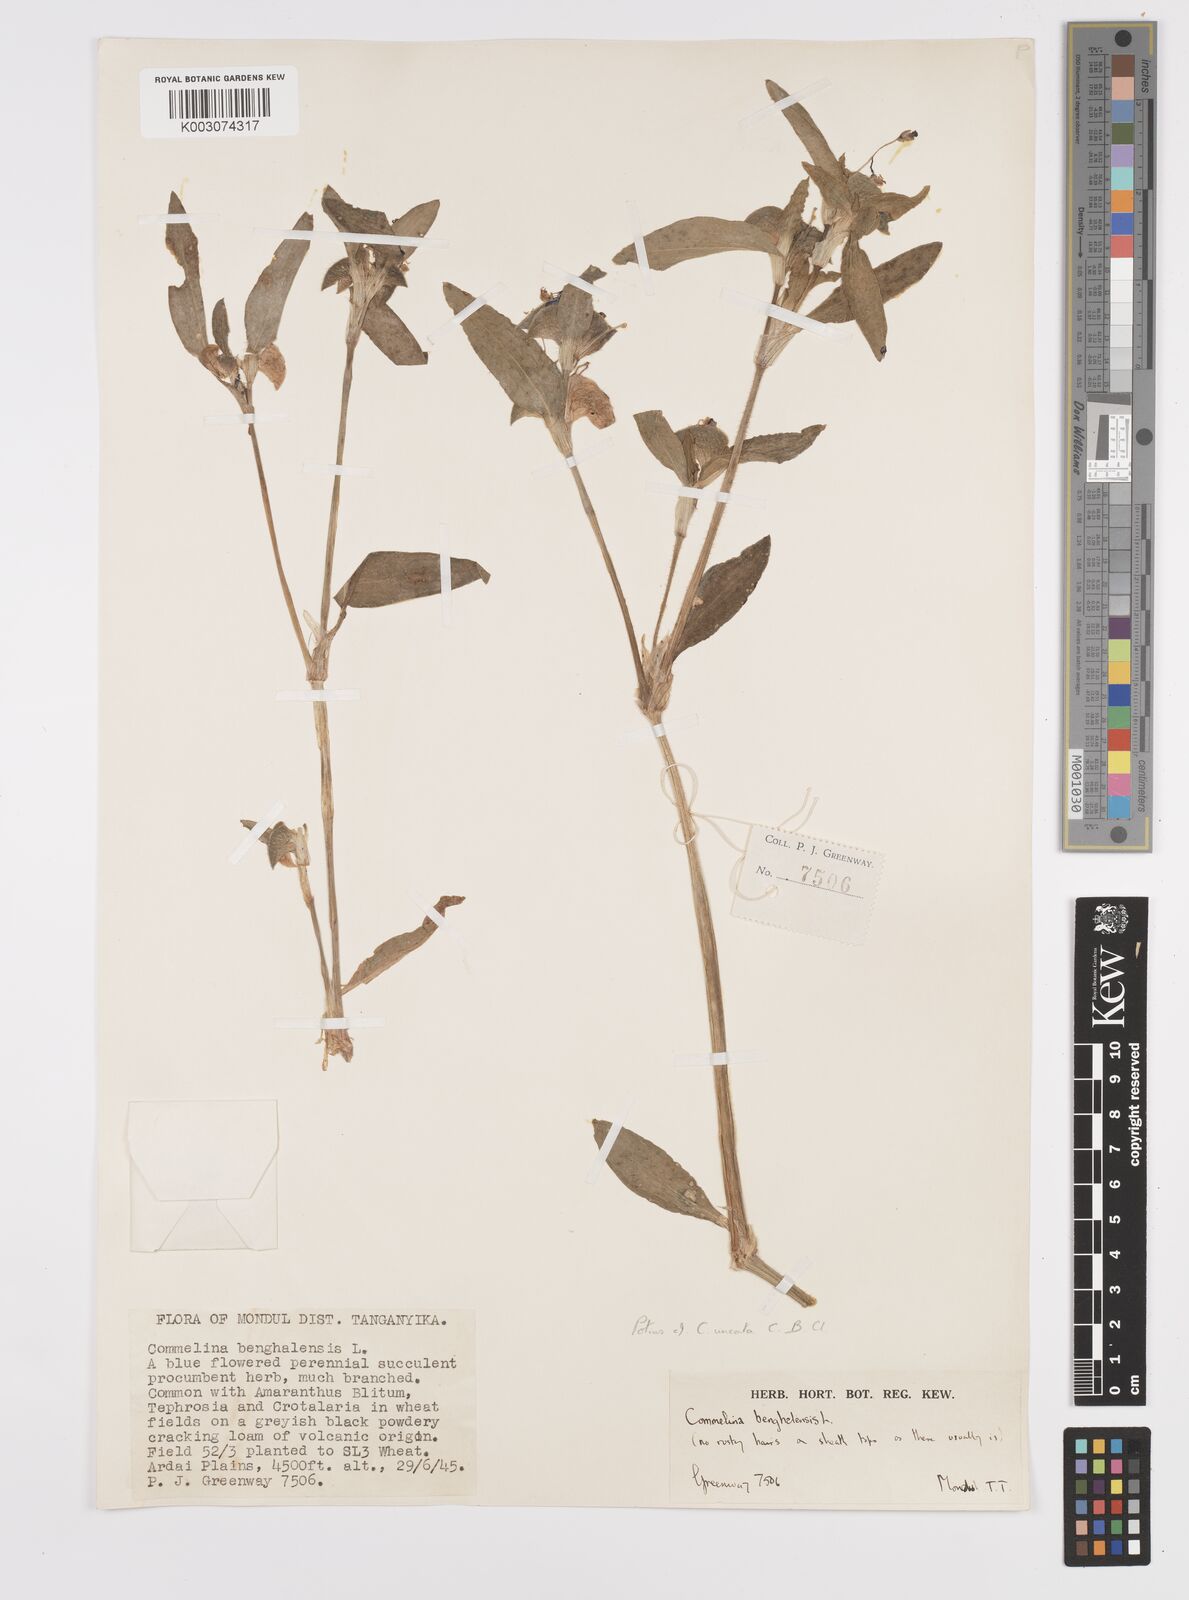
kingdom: Plantae
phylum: Tracheophyta
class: Liliopsida
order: Commelinales
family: Commelinaceae
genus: Commelina
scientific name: Commelina benghalensis
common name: Jio
